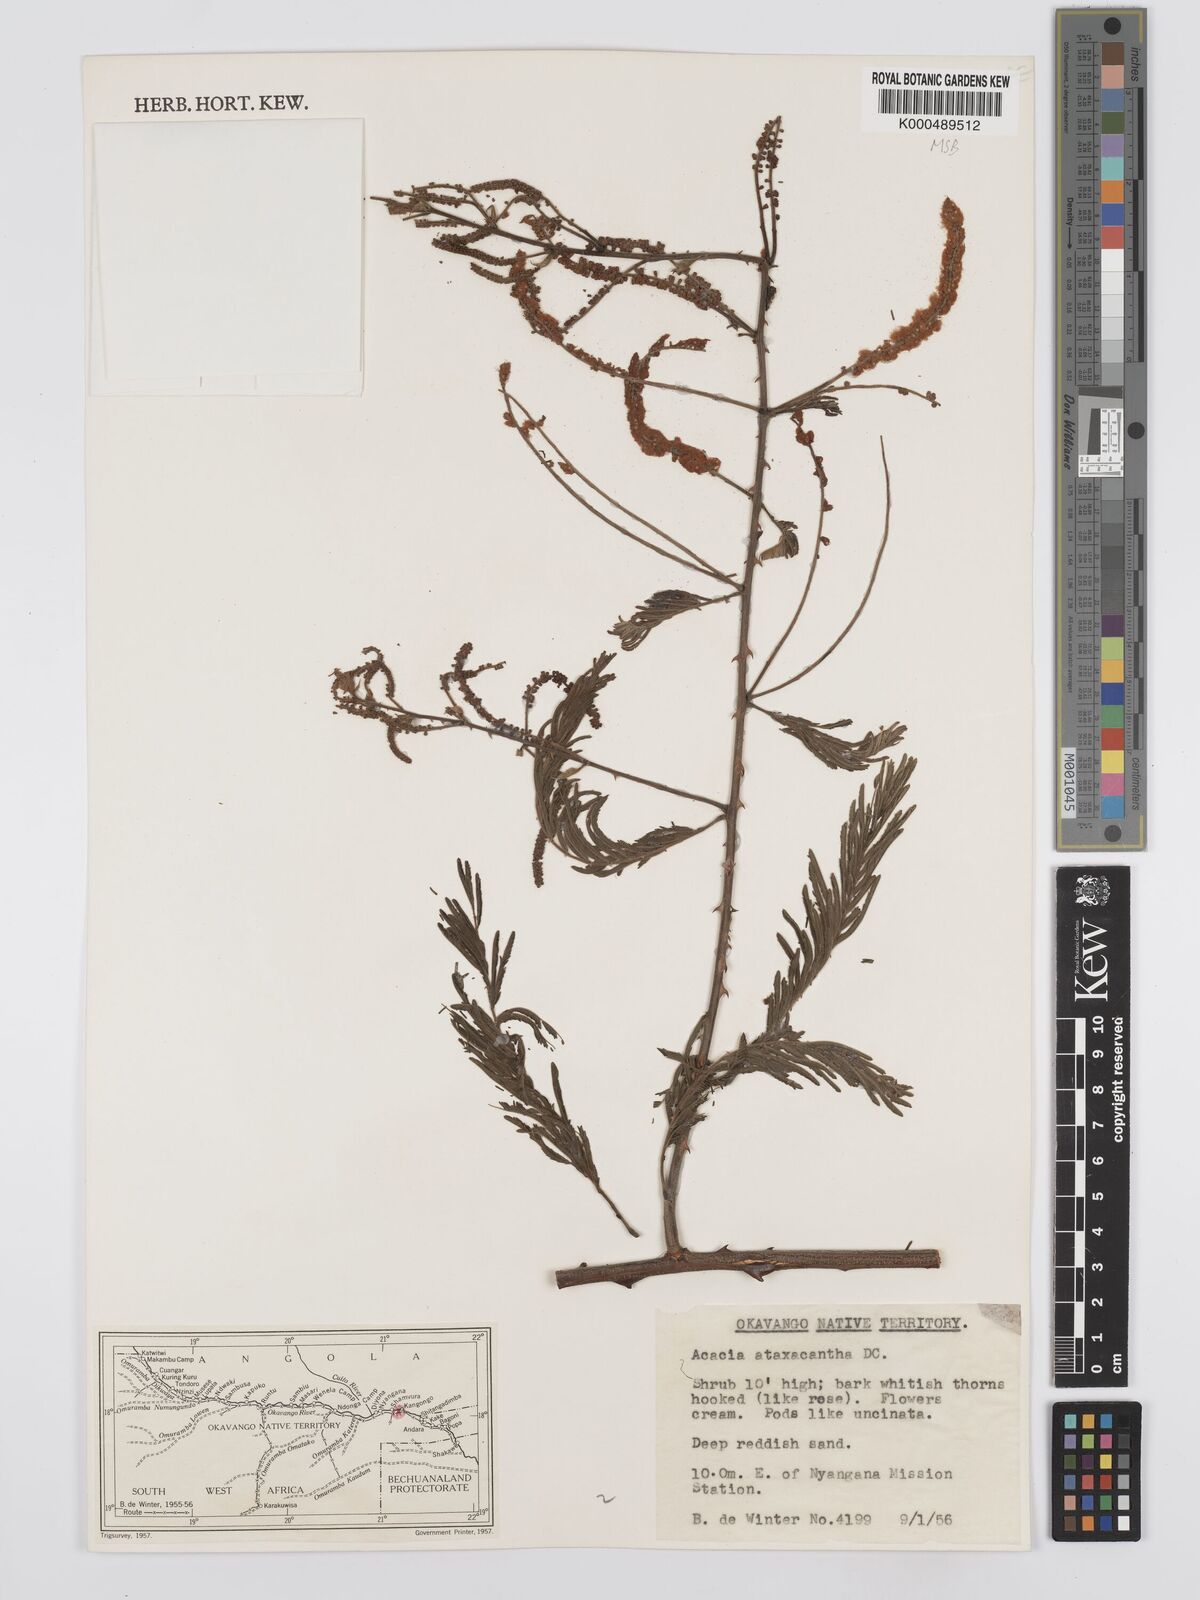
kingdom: Plantae
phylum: Tracheophyta
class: Magnoliopsida
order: Fabales
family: Fabaceae
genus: Senegalia
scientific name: Senegalia ataxacantha
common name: Flame acacia
